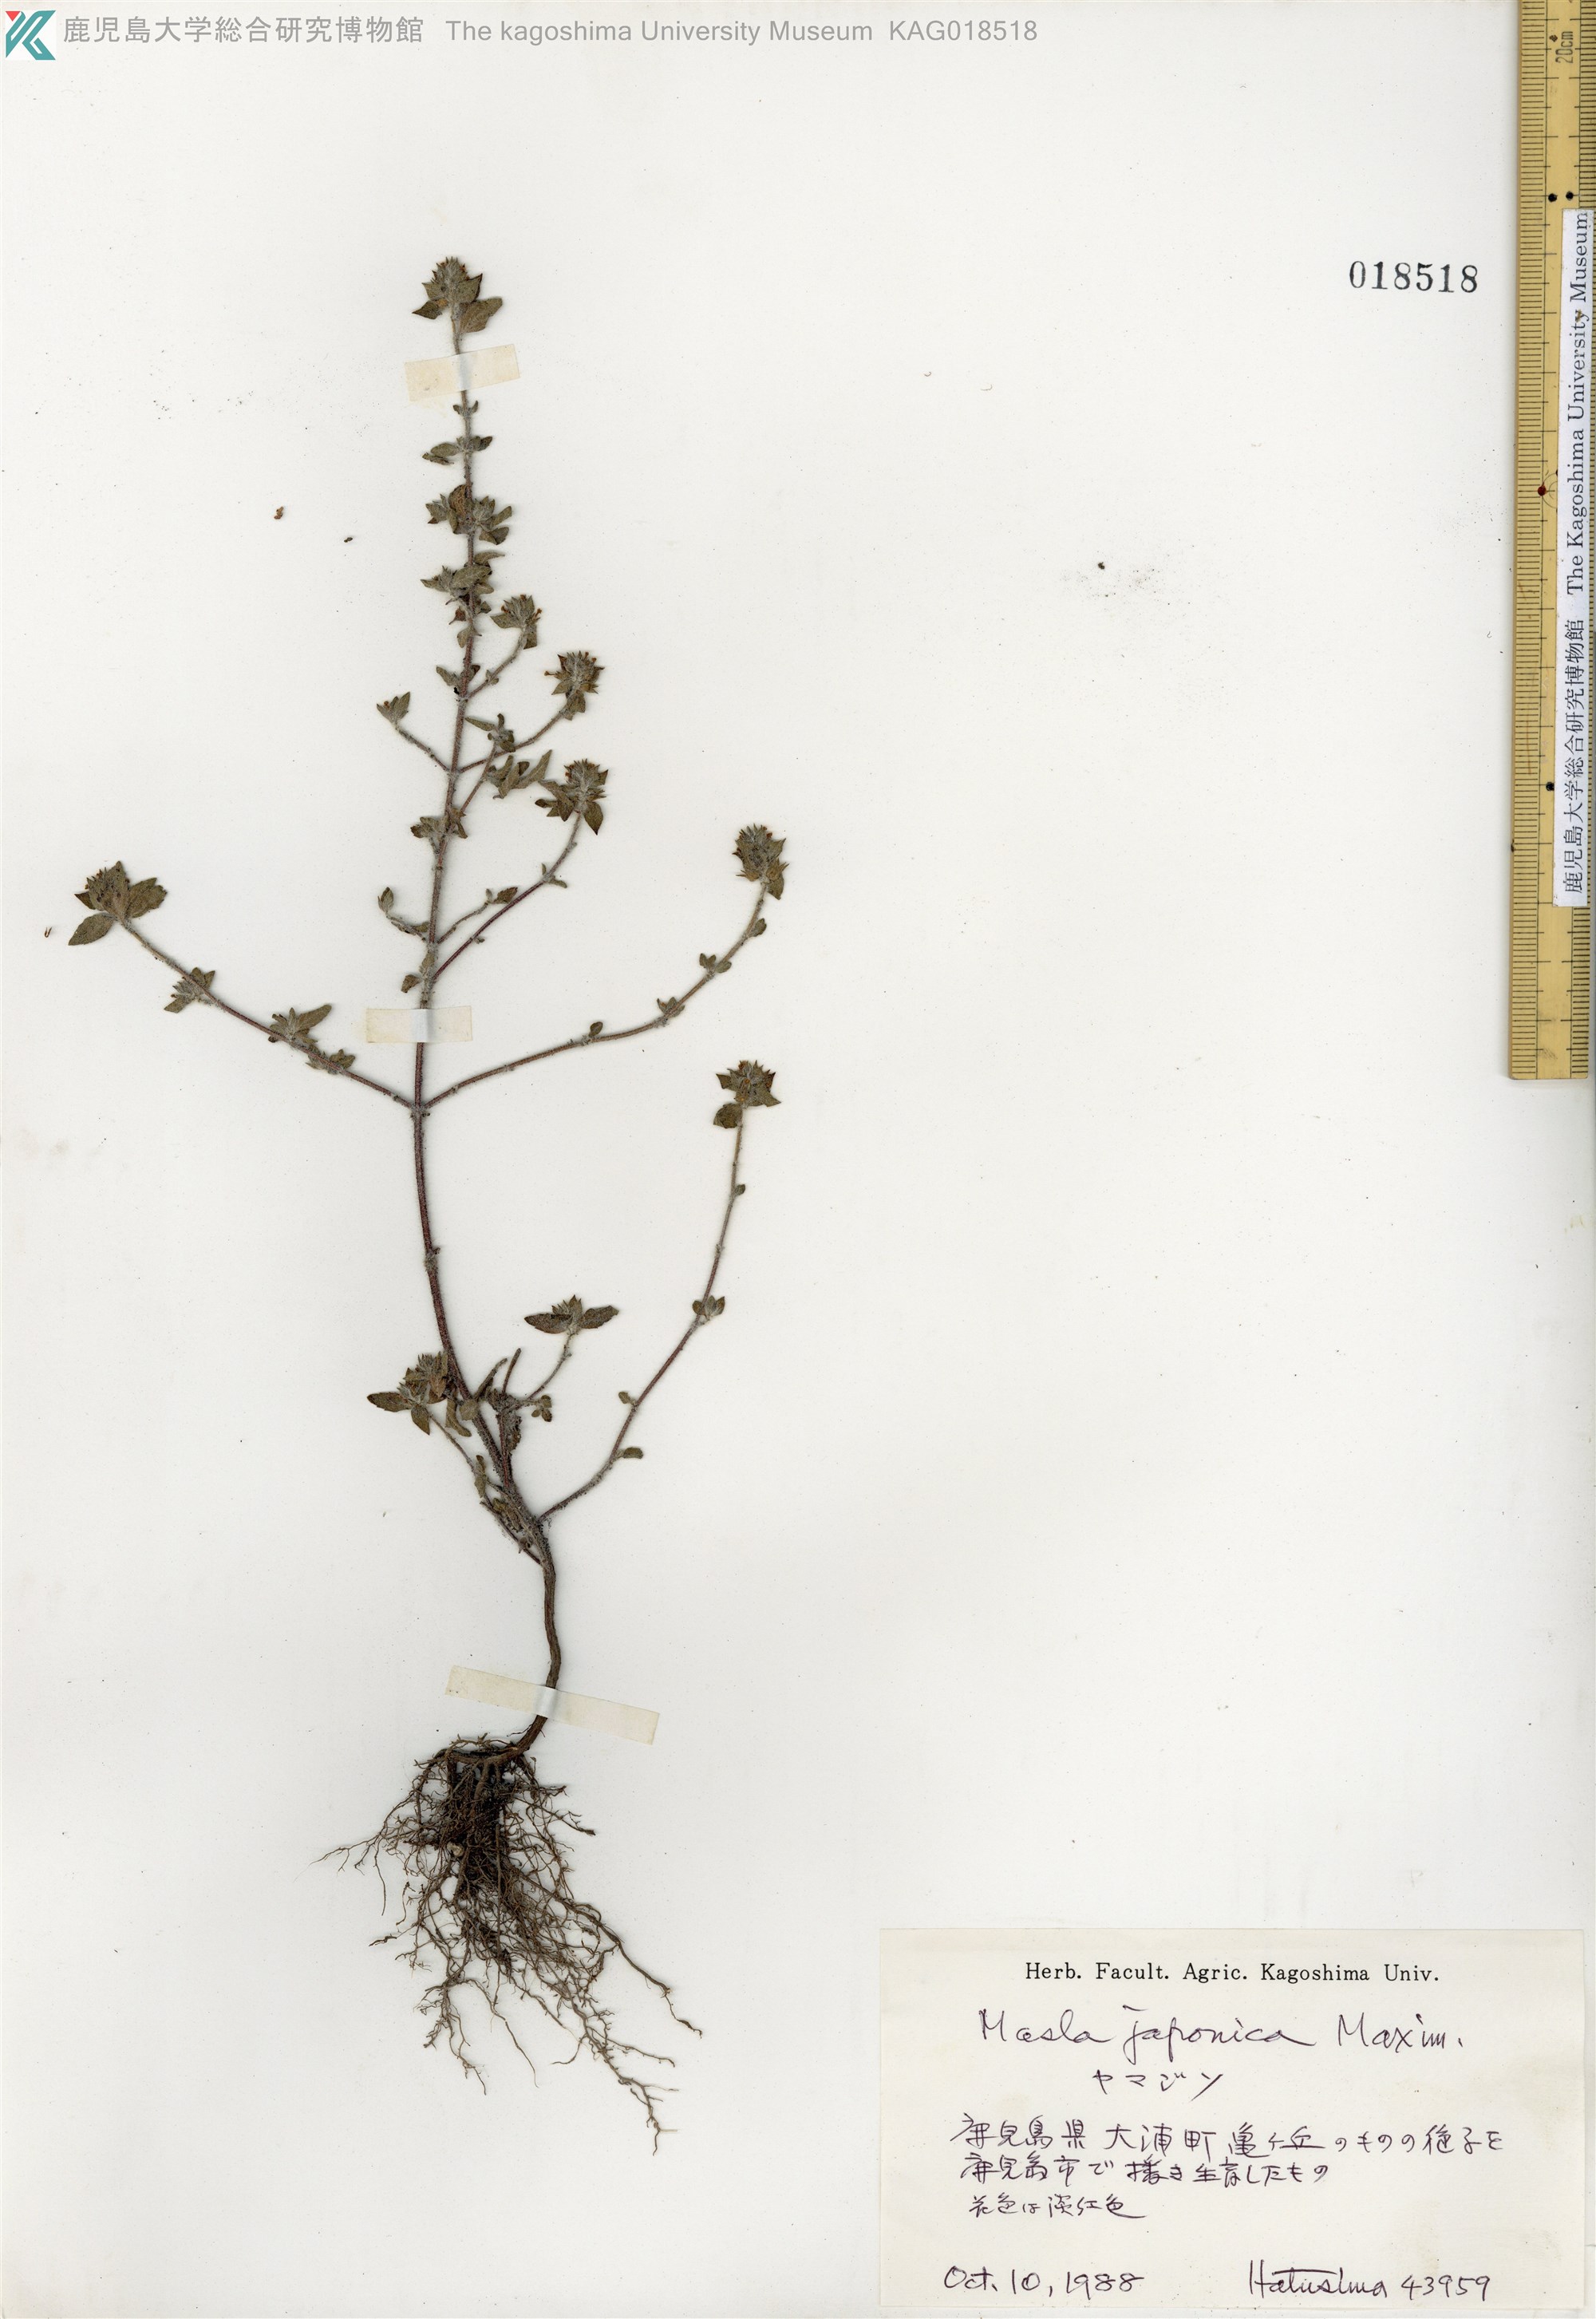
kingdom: Plantae
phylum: Tracheophyta
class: Magnoliopsida
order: Lamiales
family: Lamiaceae
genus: Mosla
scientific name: Mosla japonica
